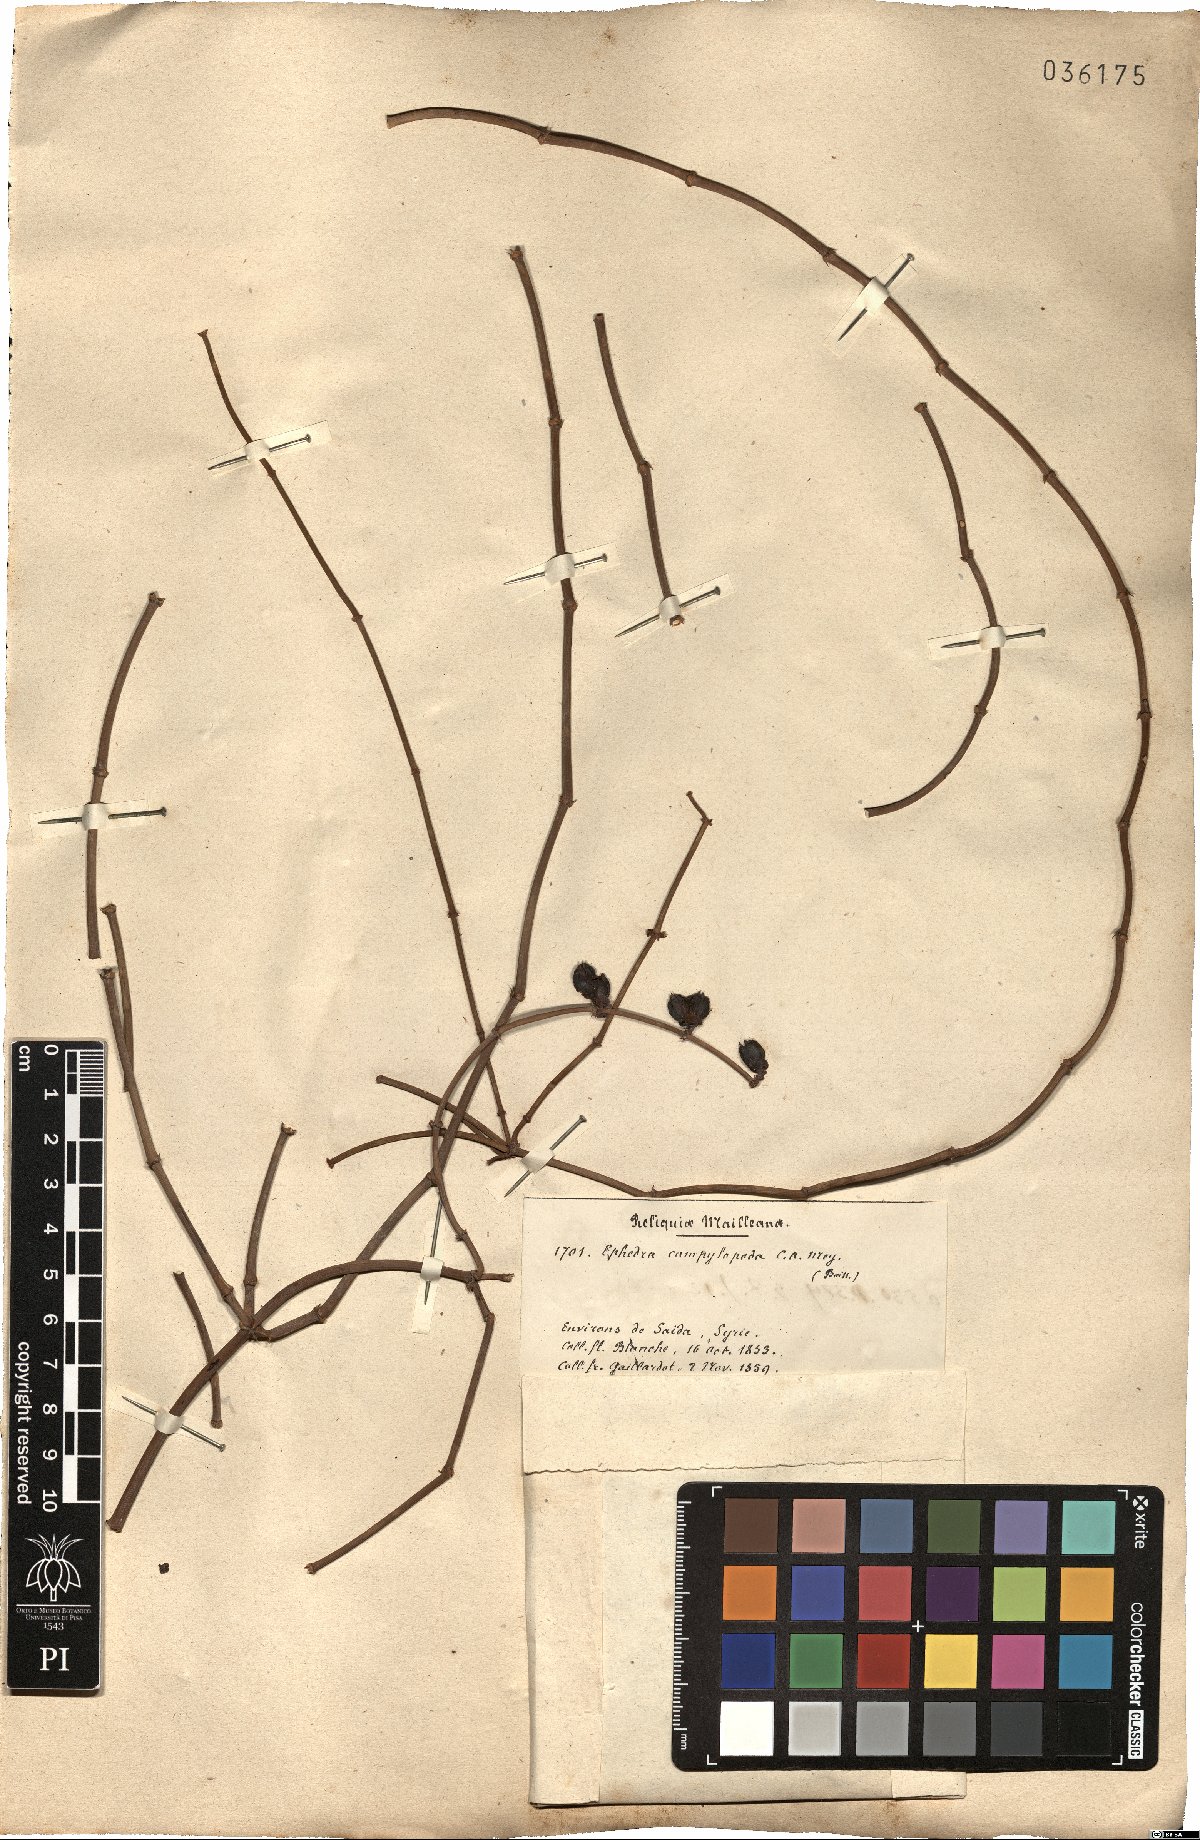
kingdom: Plantae
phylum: Tracheophyta
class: Gnetopsida
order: Ephedrales
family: Ephedraceae
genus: Ephedra
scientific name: Ephedra foeminea
